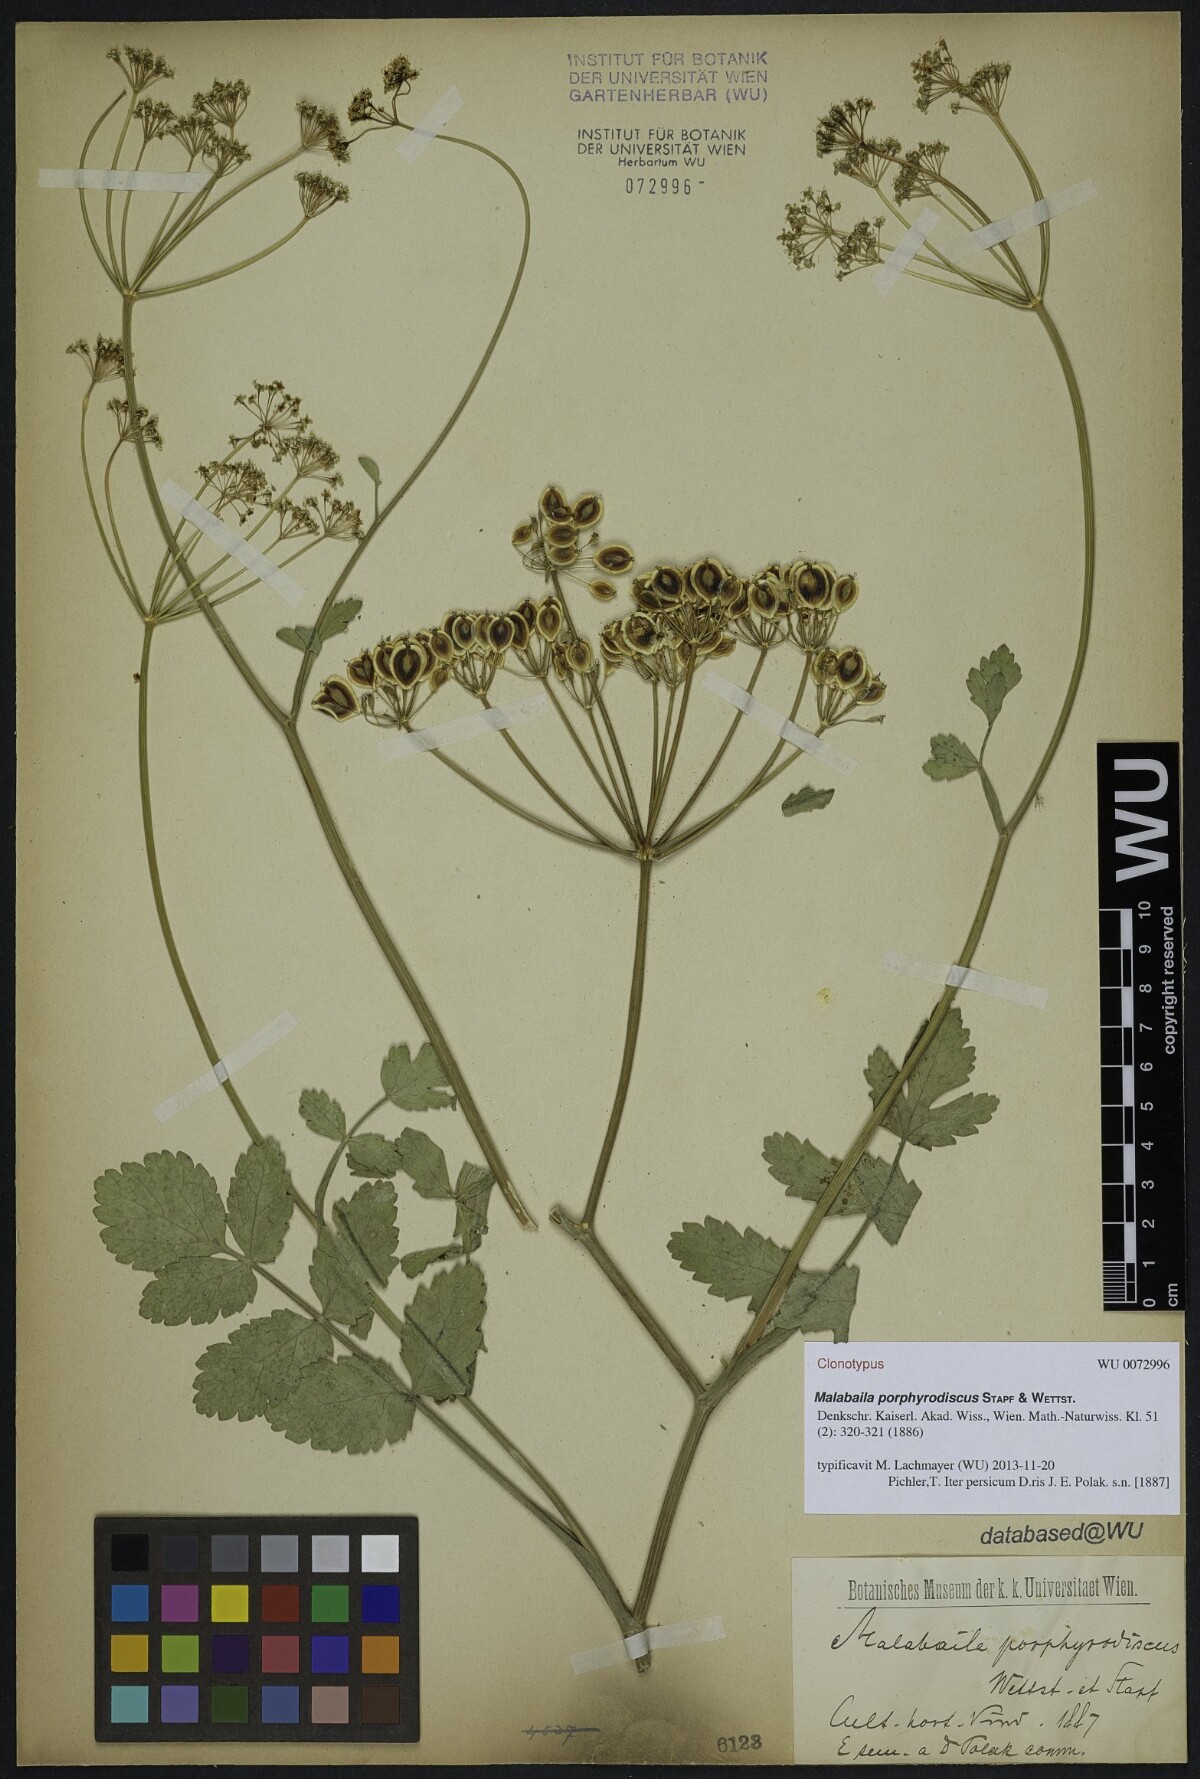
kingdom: Plantae
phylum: Tracheophyta
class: Magnoliopsida
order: Apiales
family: Apiaceae
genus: Leiotulus
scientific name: Leiotulus porphyrodiscus
